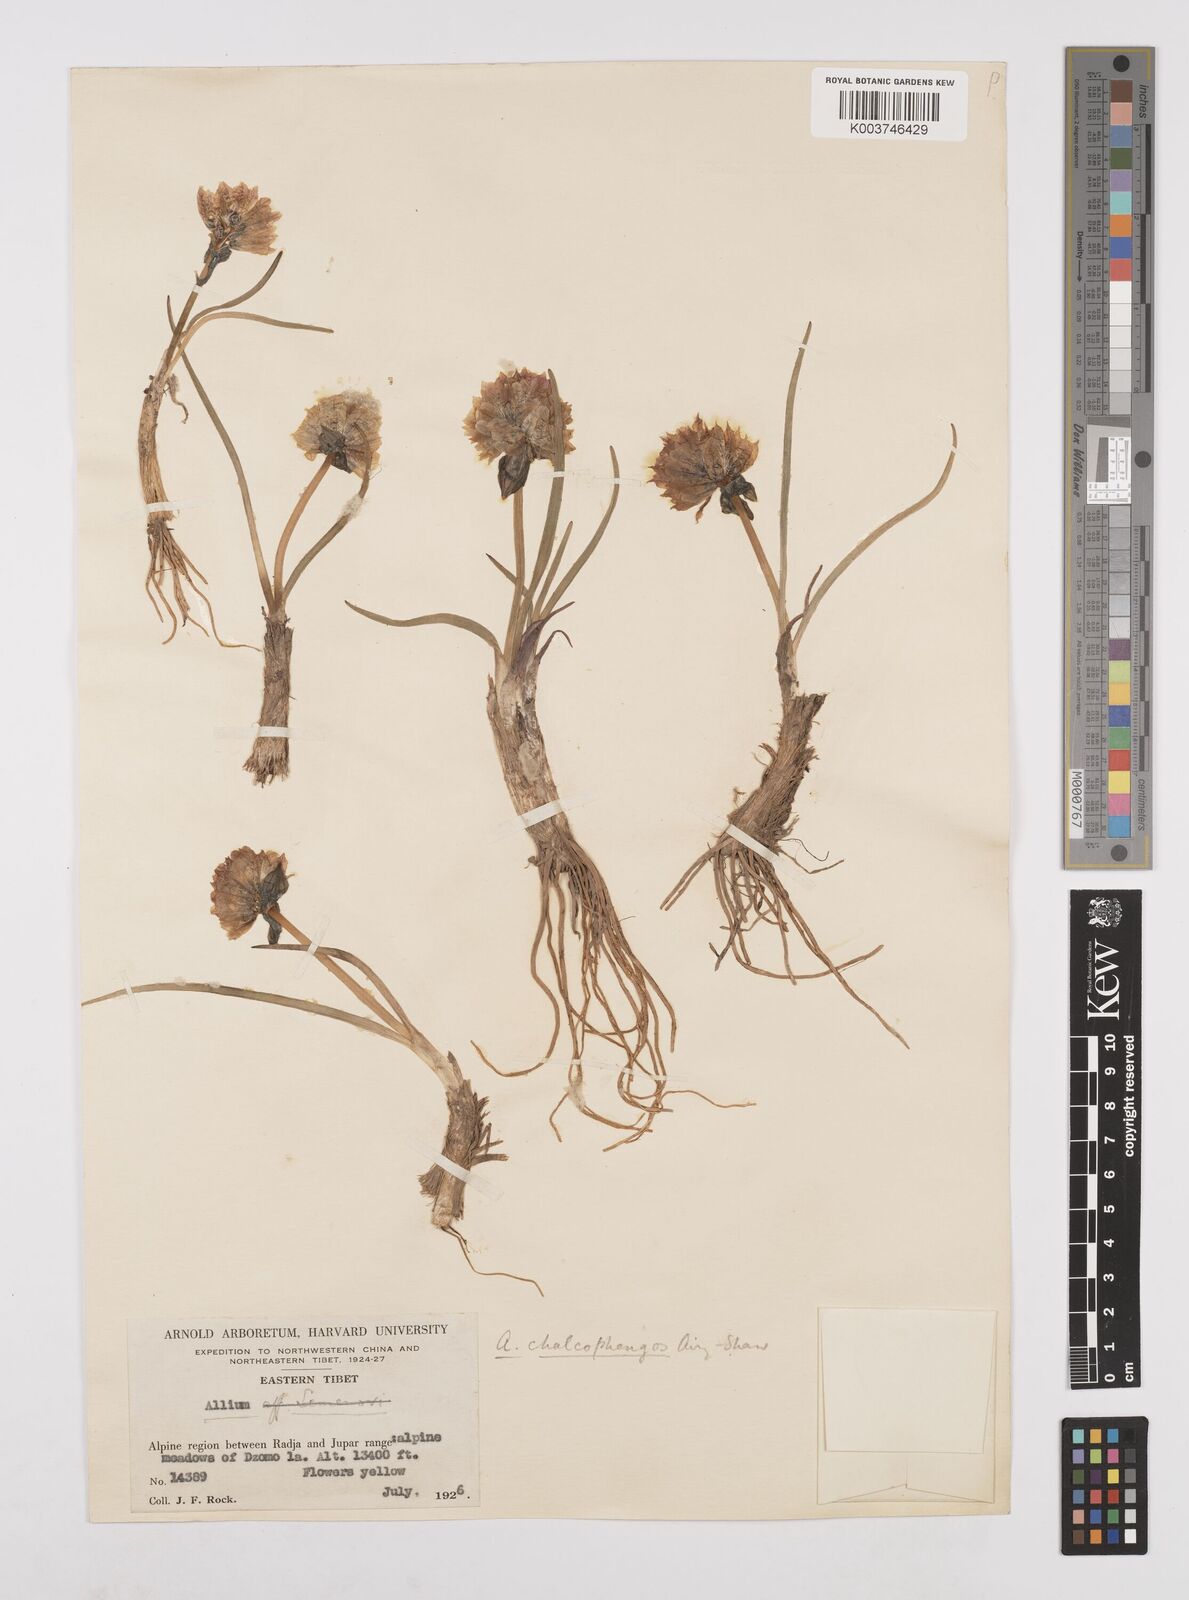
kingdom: Plantae
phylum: Tracheophyta
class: Liliopsida
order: Asparagales
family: Amaryllidaceae
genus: Allium
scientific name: Allium atrosanguineum
